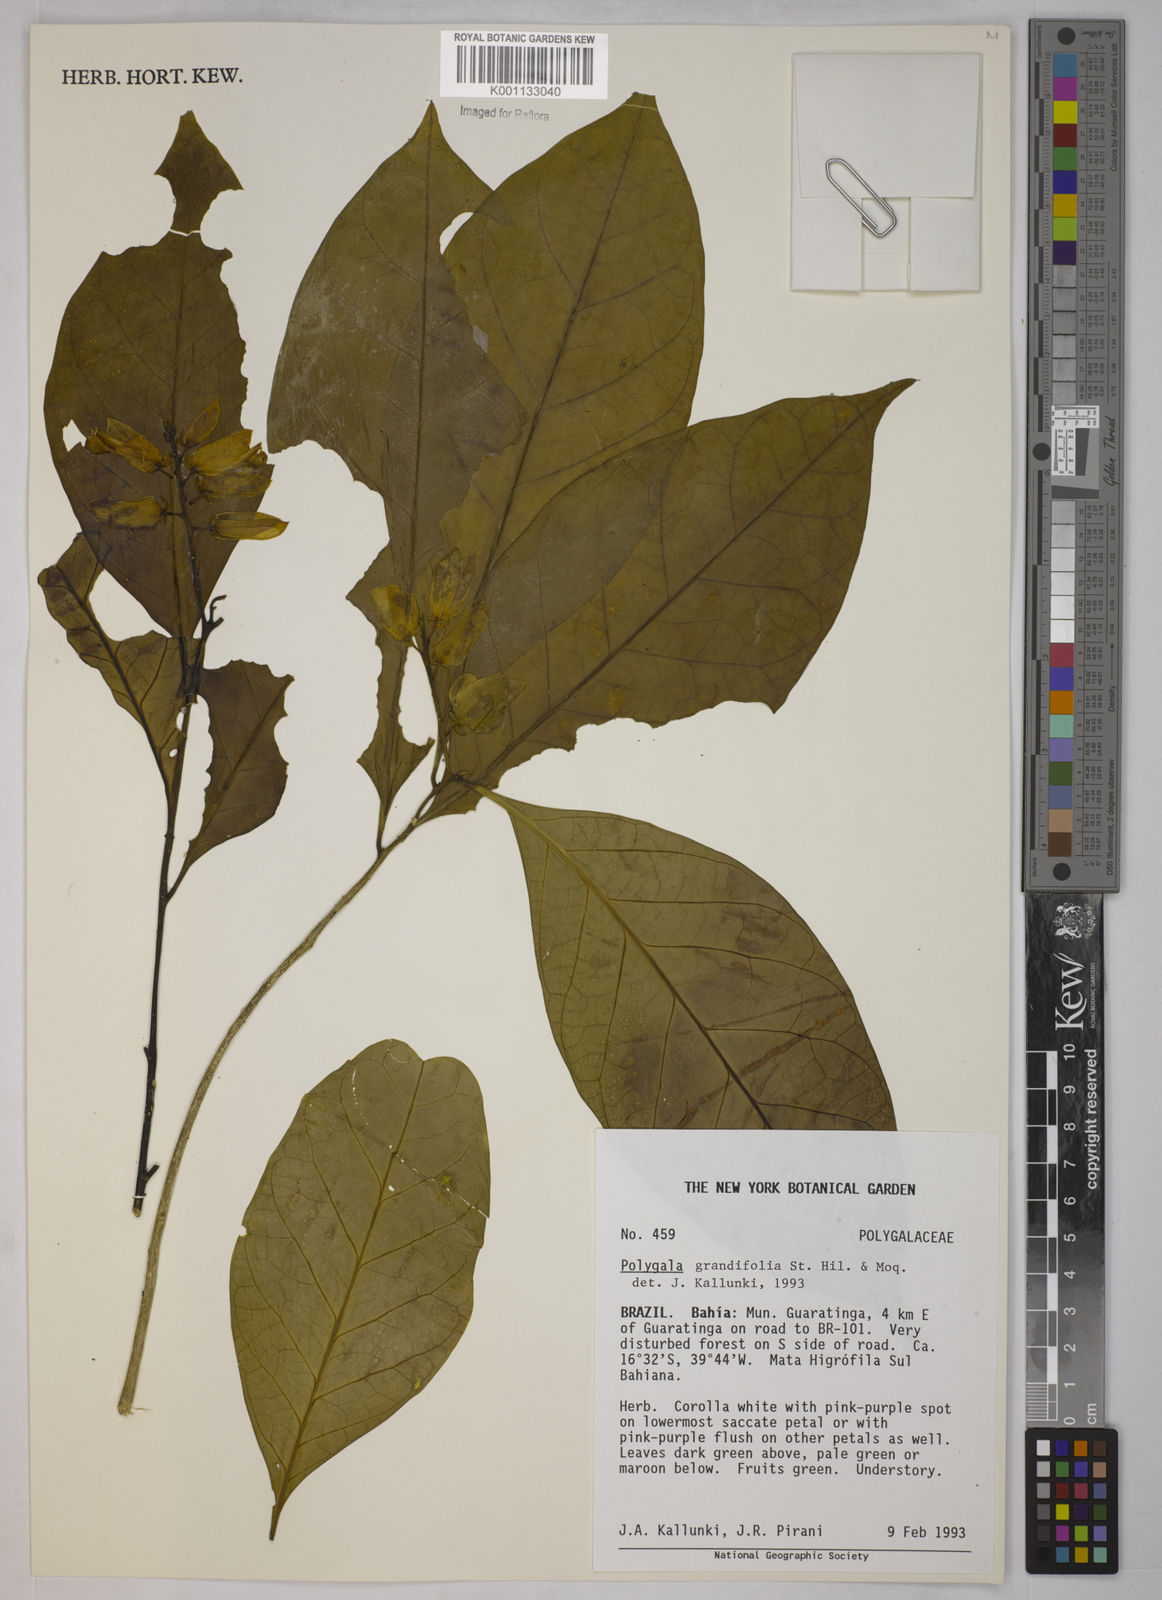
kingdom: Plantae
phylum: Tracheophyta
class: Magnoliopsida
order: Fabales
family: Polygalaceae
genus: Caamembeca
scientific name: Caamembeca grandifolia
